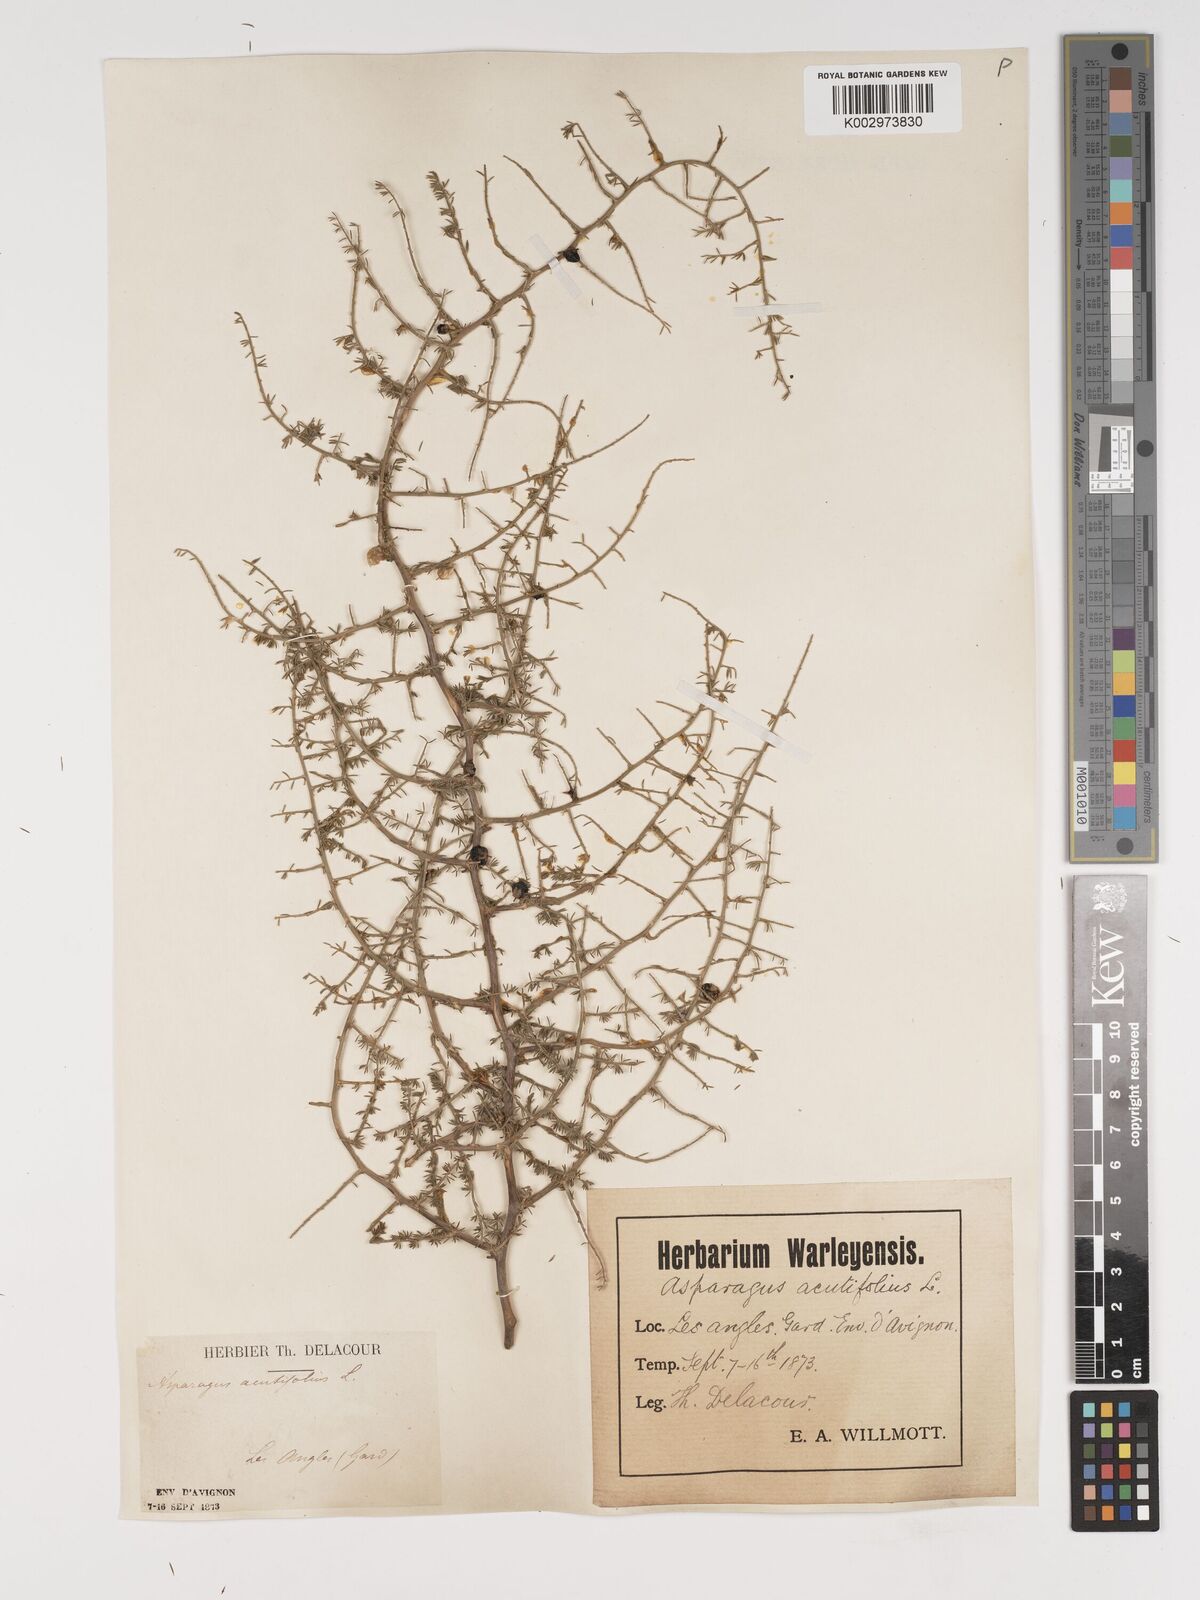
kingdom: Plantae
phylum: Tracheophyta
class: Liliopsida
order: Asparagales
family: Asparagaceae
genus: Asparagus
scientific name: Asparagus aethiopicus
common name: Sprenger's asparagus fern
